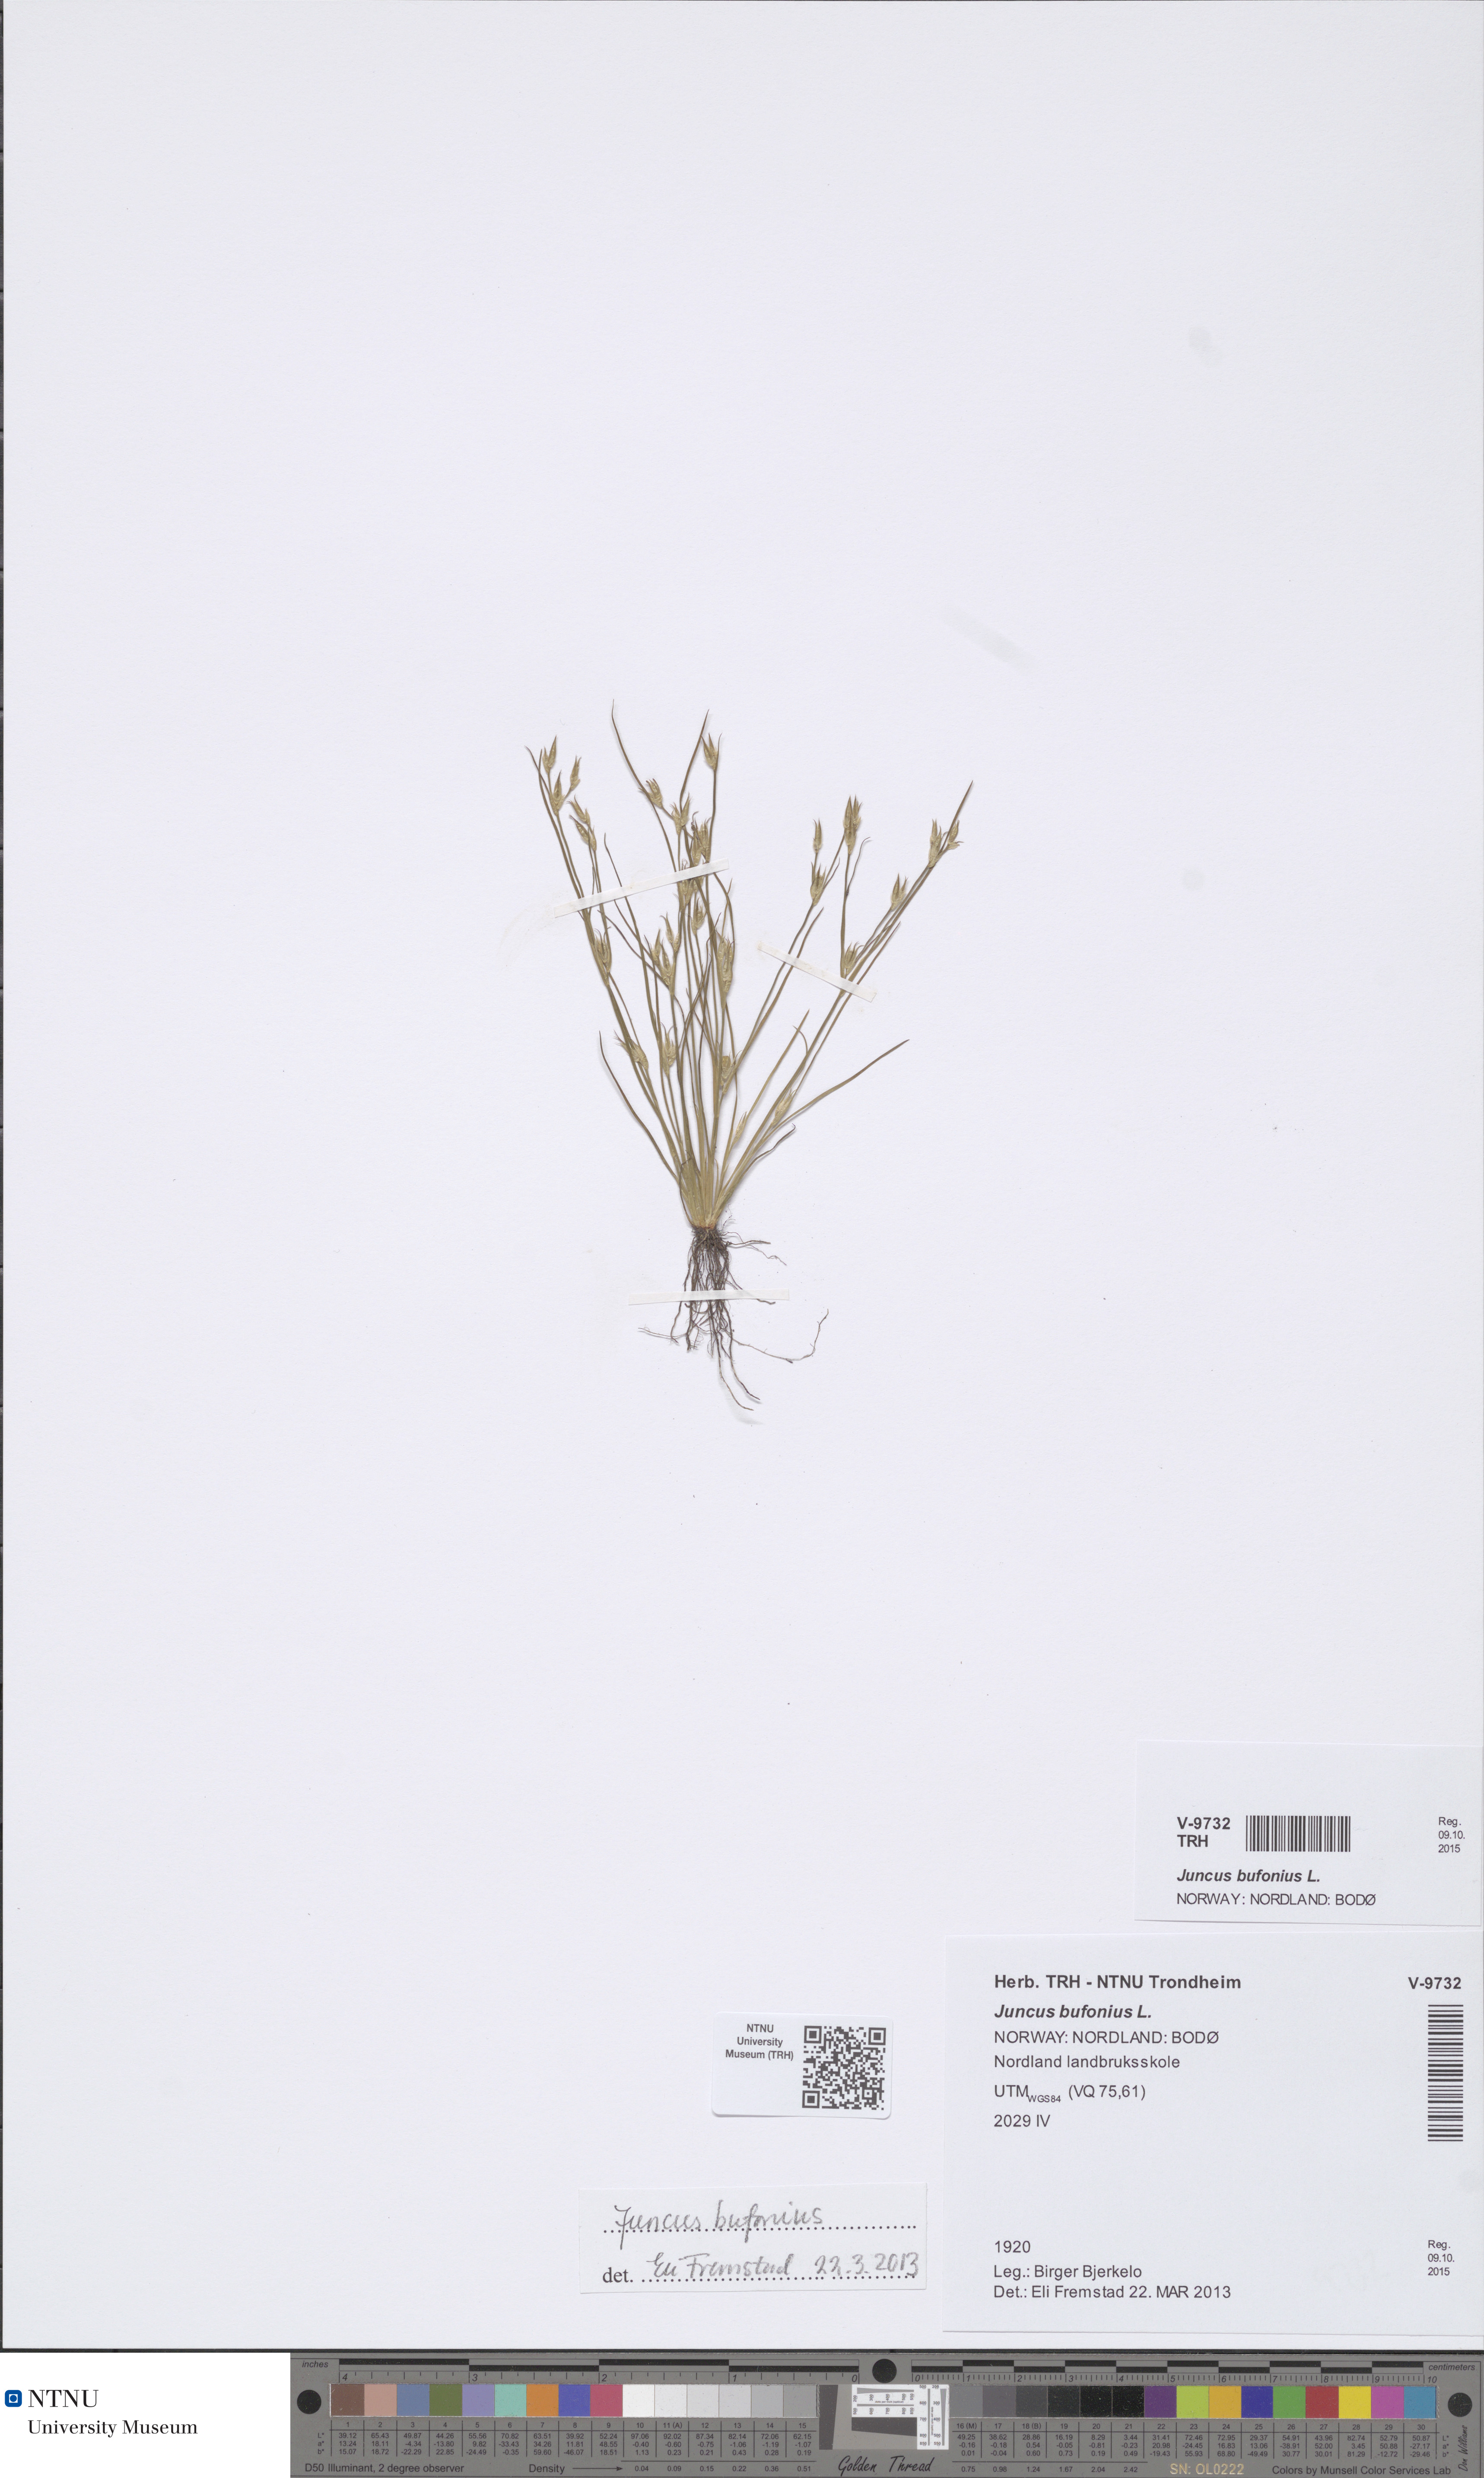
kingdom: Plantae
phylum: Tracheophyta
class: Liliopsida
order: Poales
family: Juncaceae
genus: Juncus
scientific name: Juncus bufonius
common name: Toad rush
